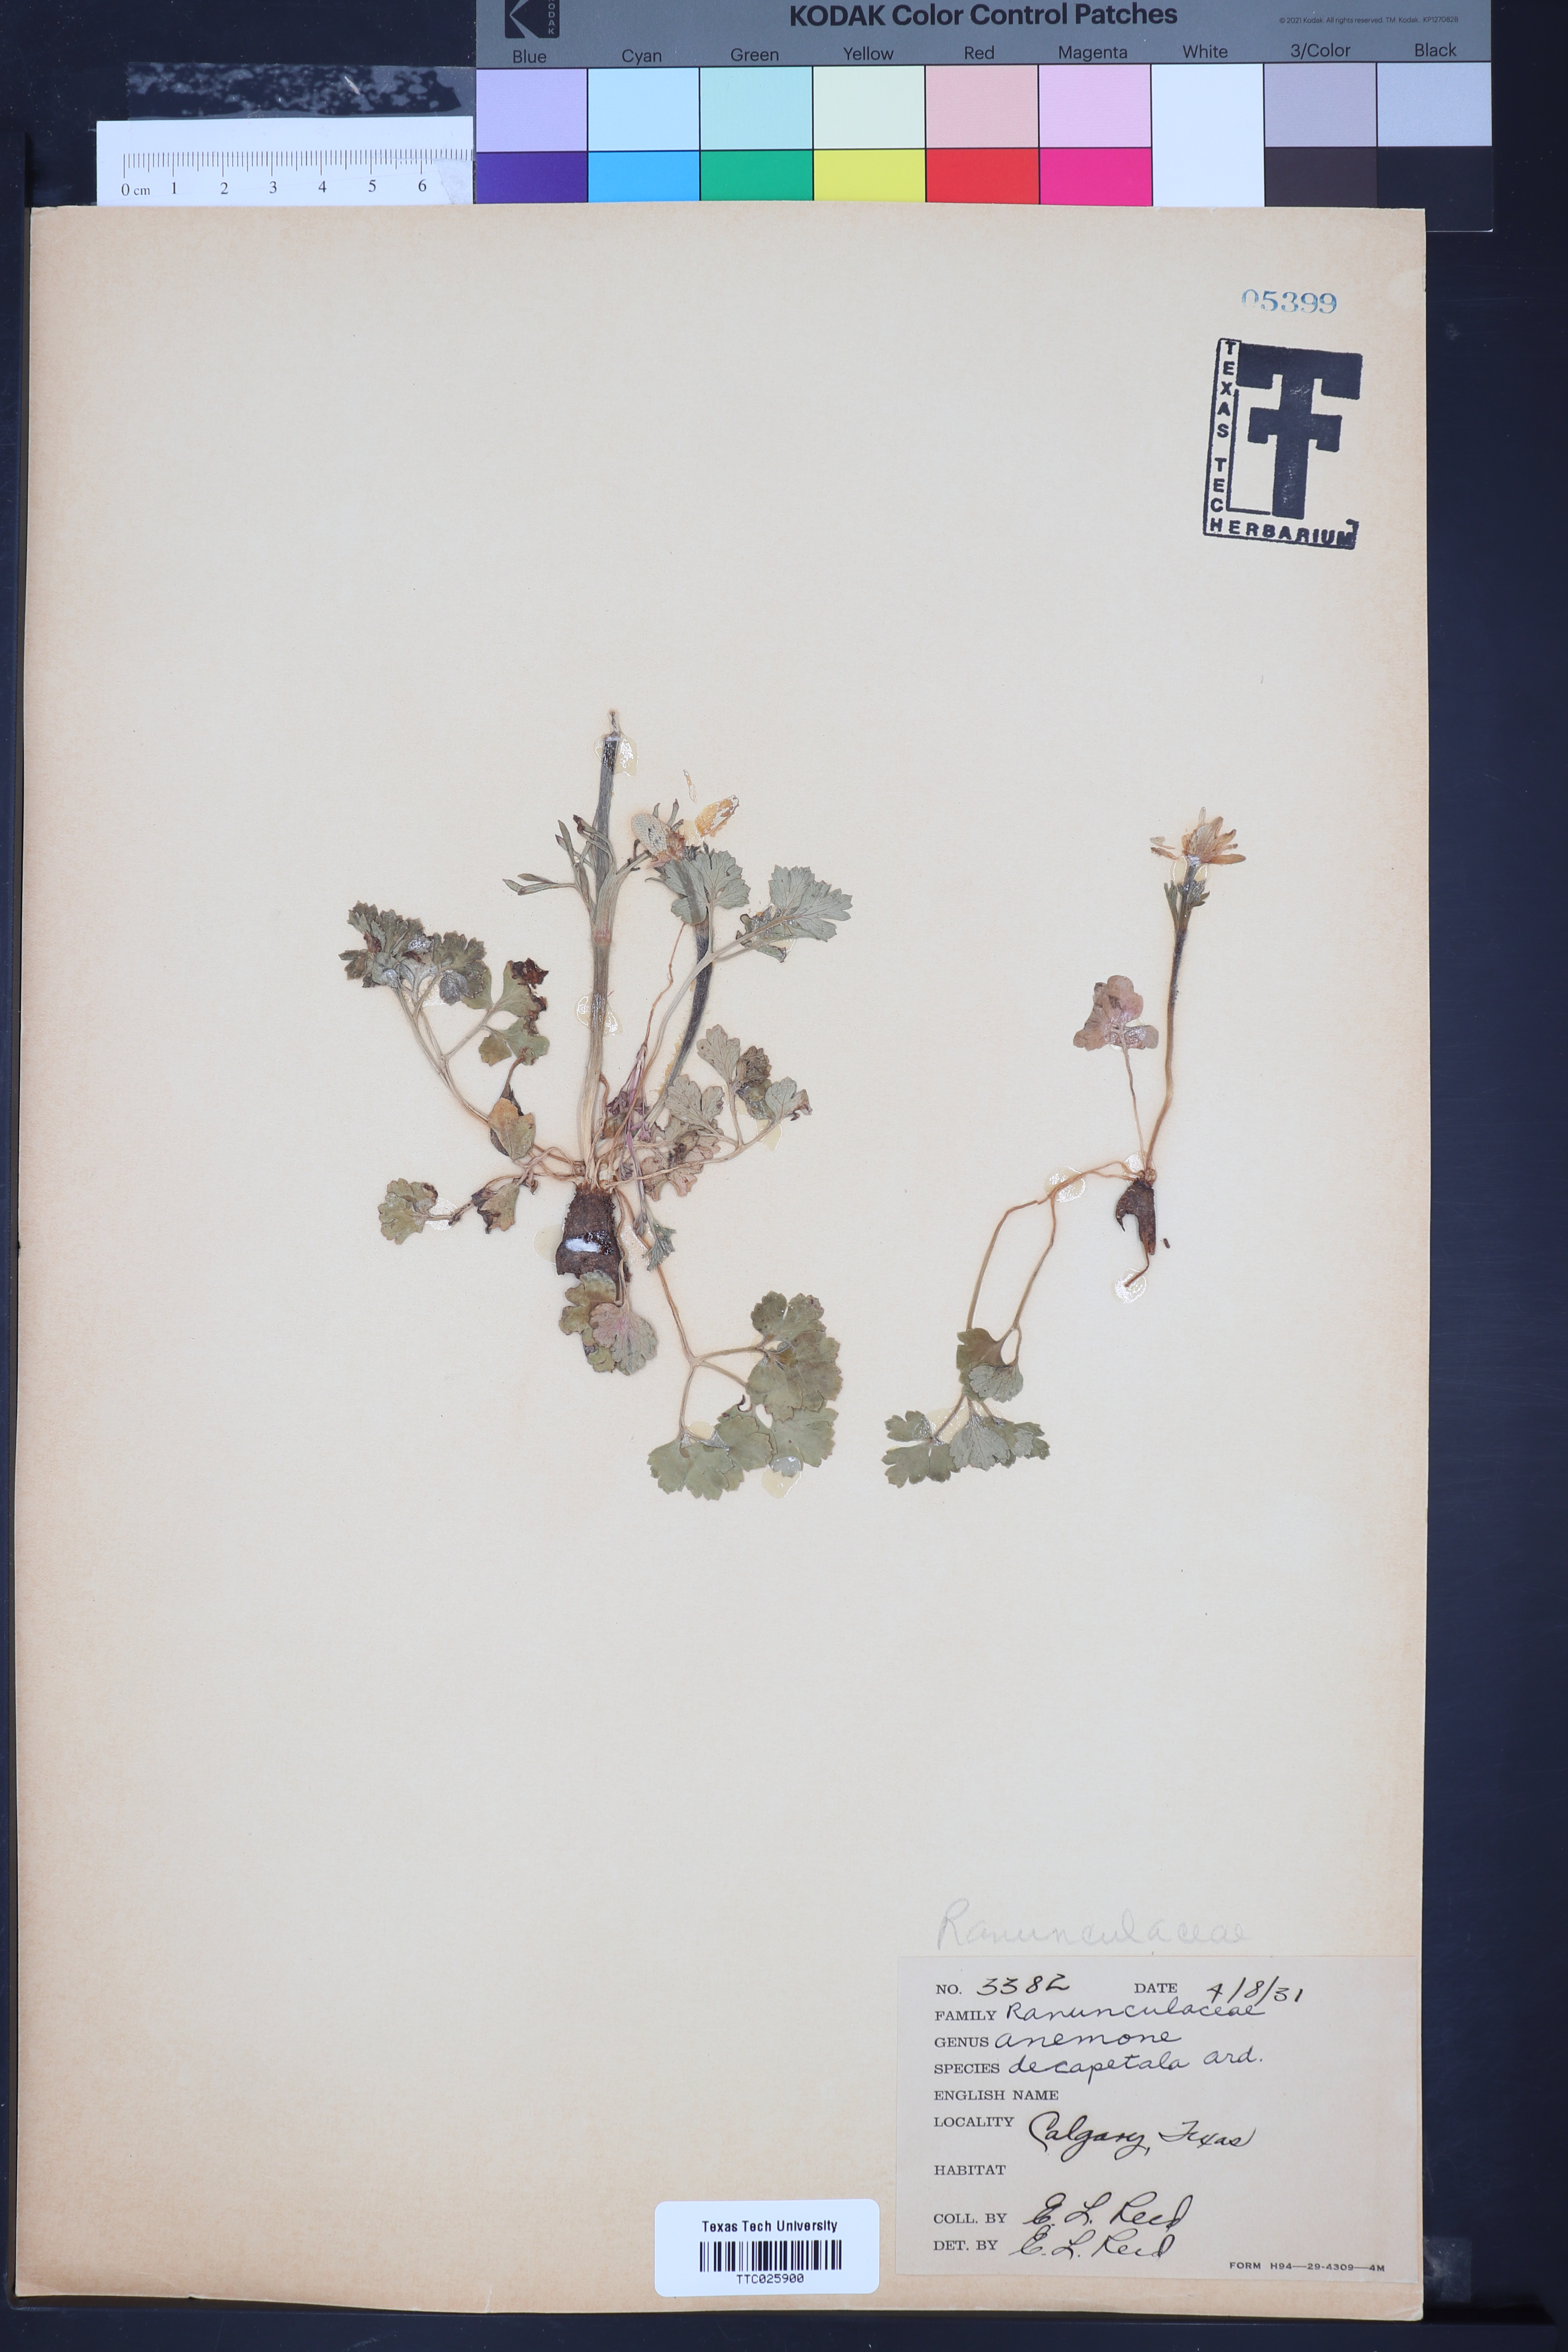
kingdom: Plantae
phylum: Tracheophyta
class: Magnoliopsida
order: Ranunculales
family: Ranunculaceae
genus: Anemone
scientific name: Anemone decapetala
